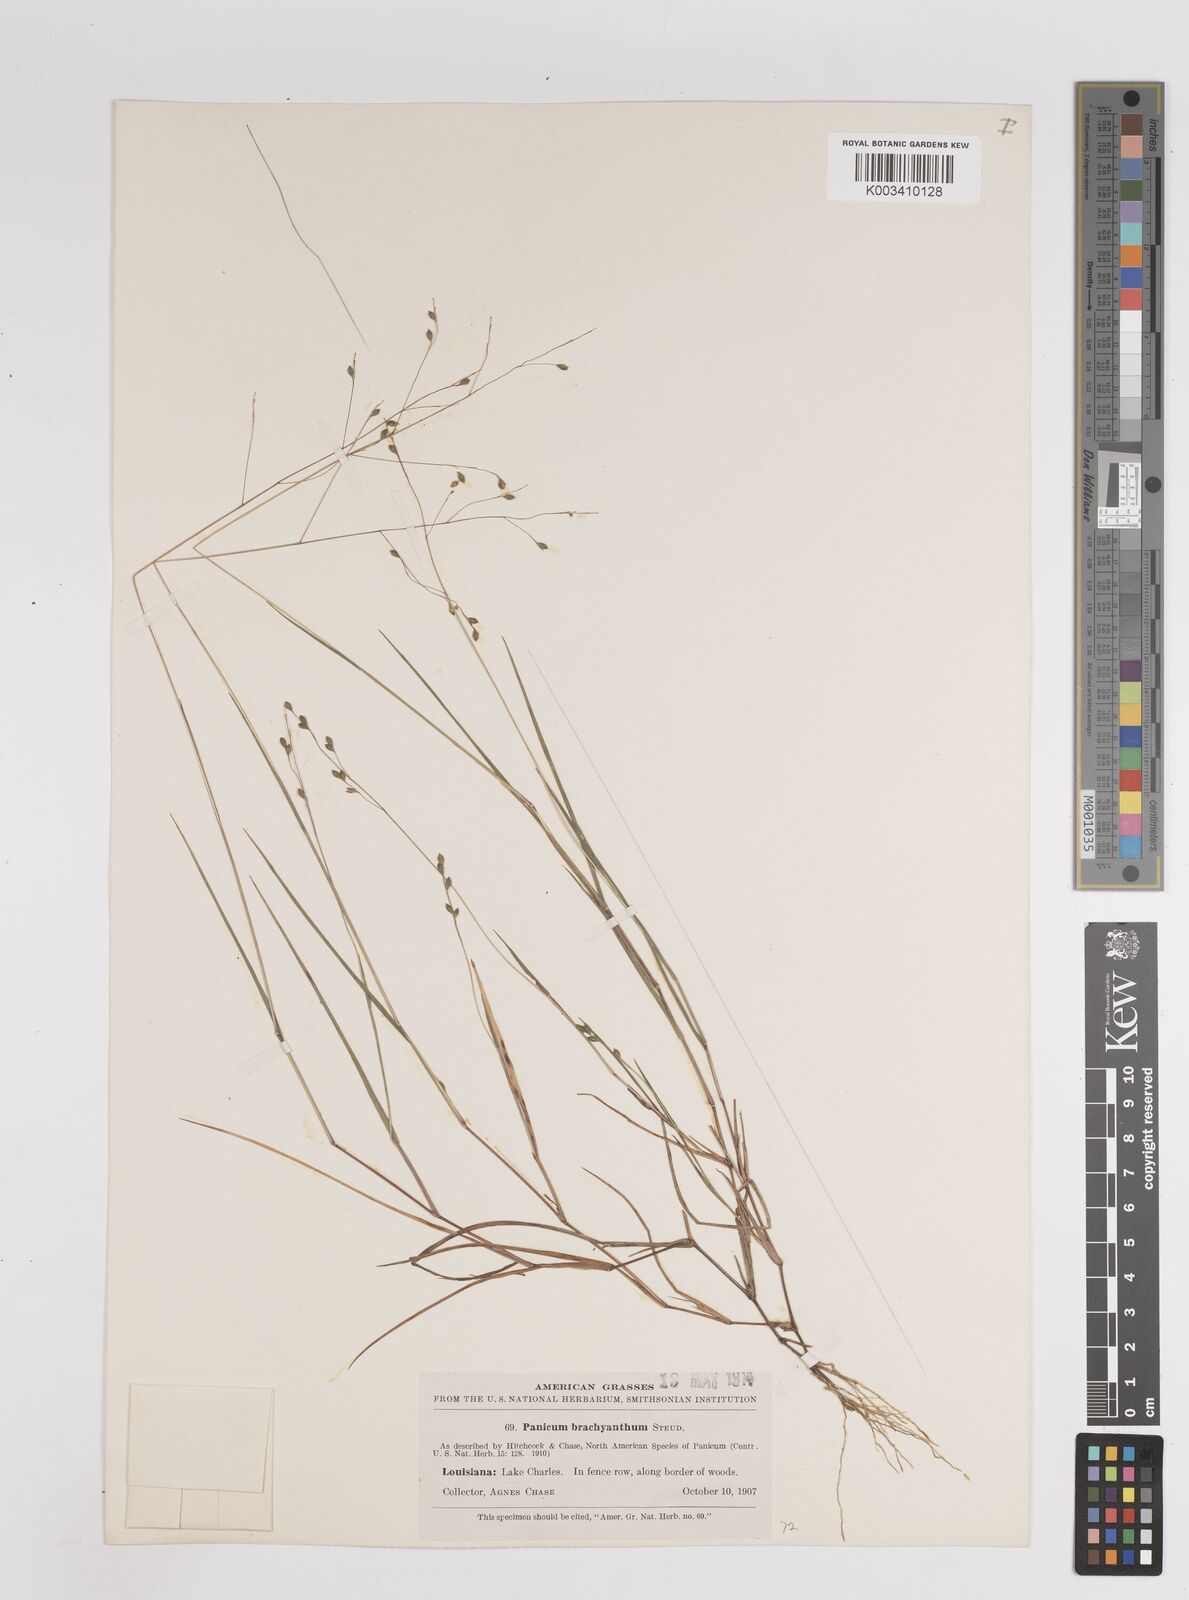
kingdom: Plantae
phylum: Tracheophyta
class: Liliopsida
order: Poales
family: Poaceae
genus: Kellochloa
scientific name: Kellochloa brachyantha
